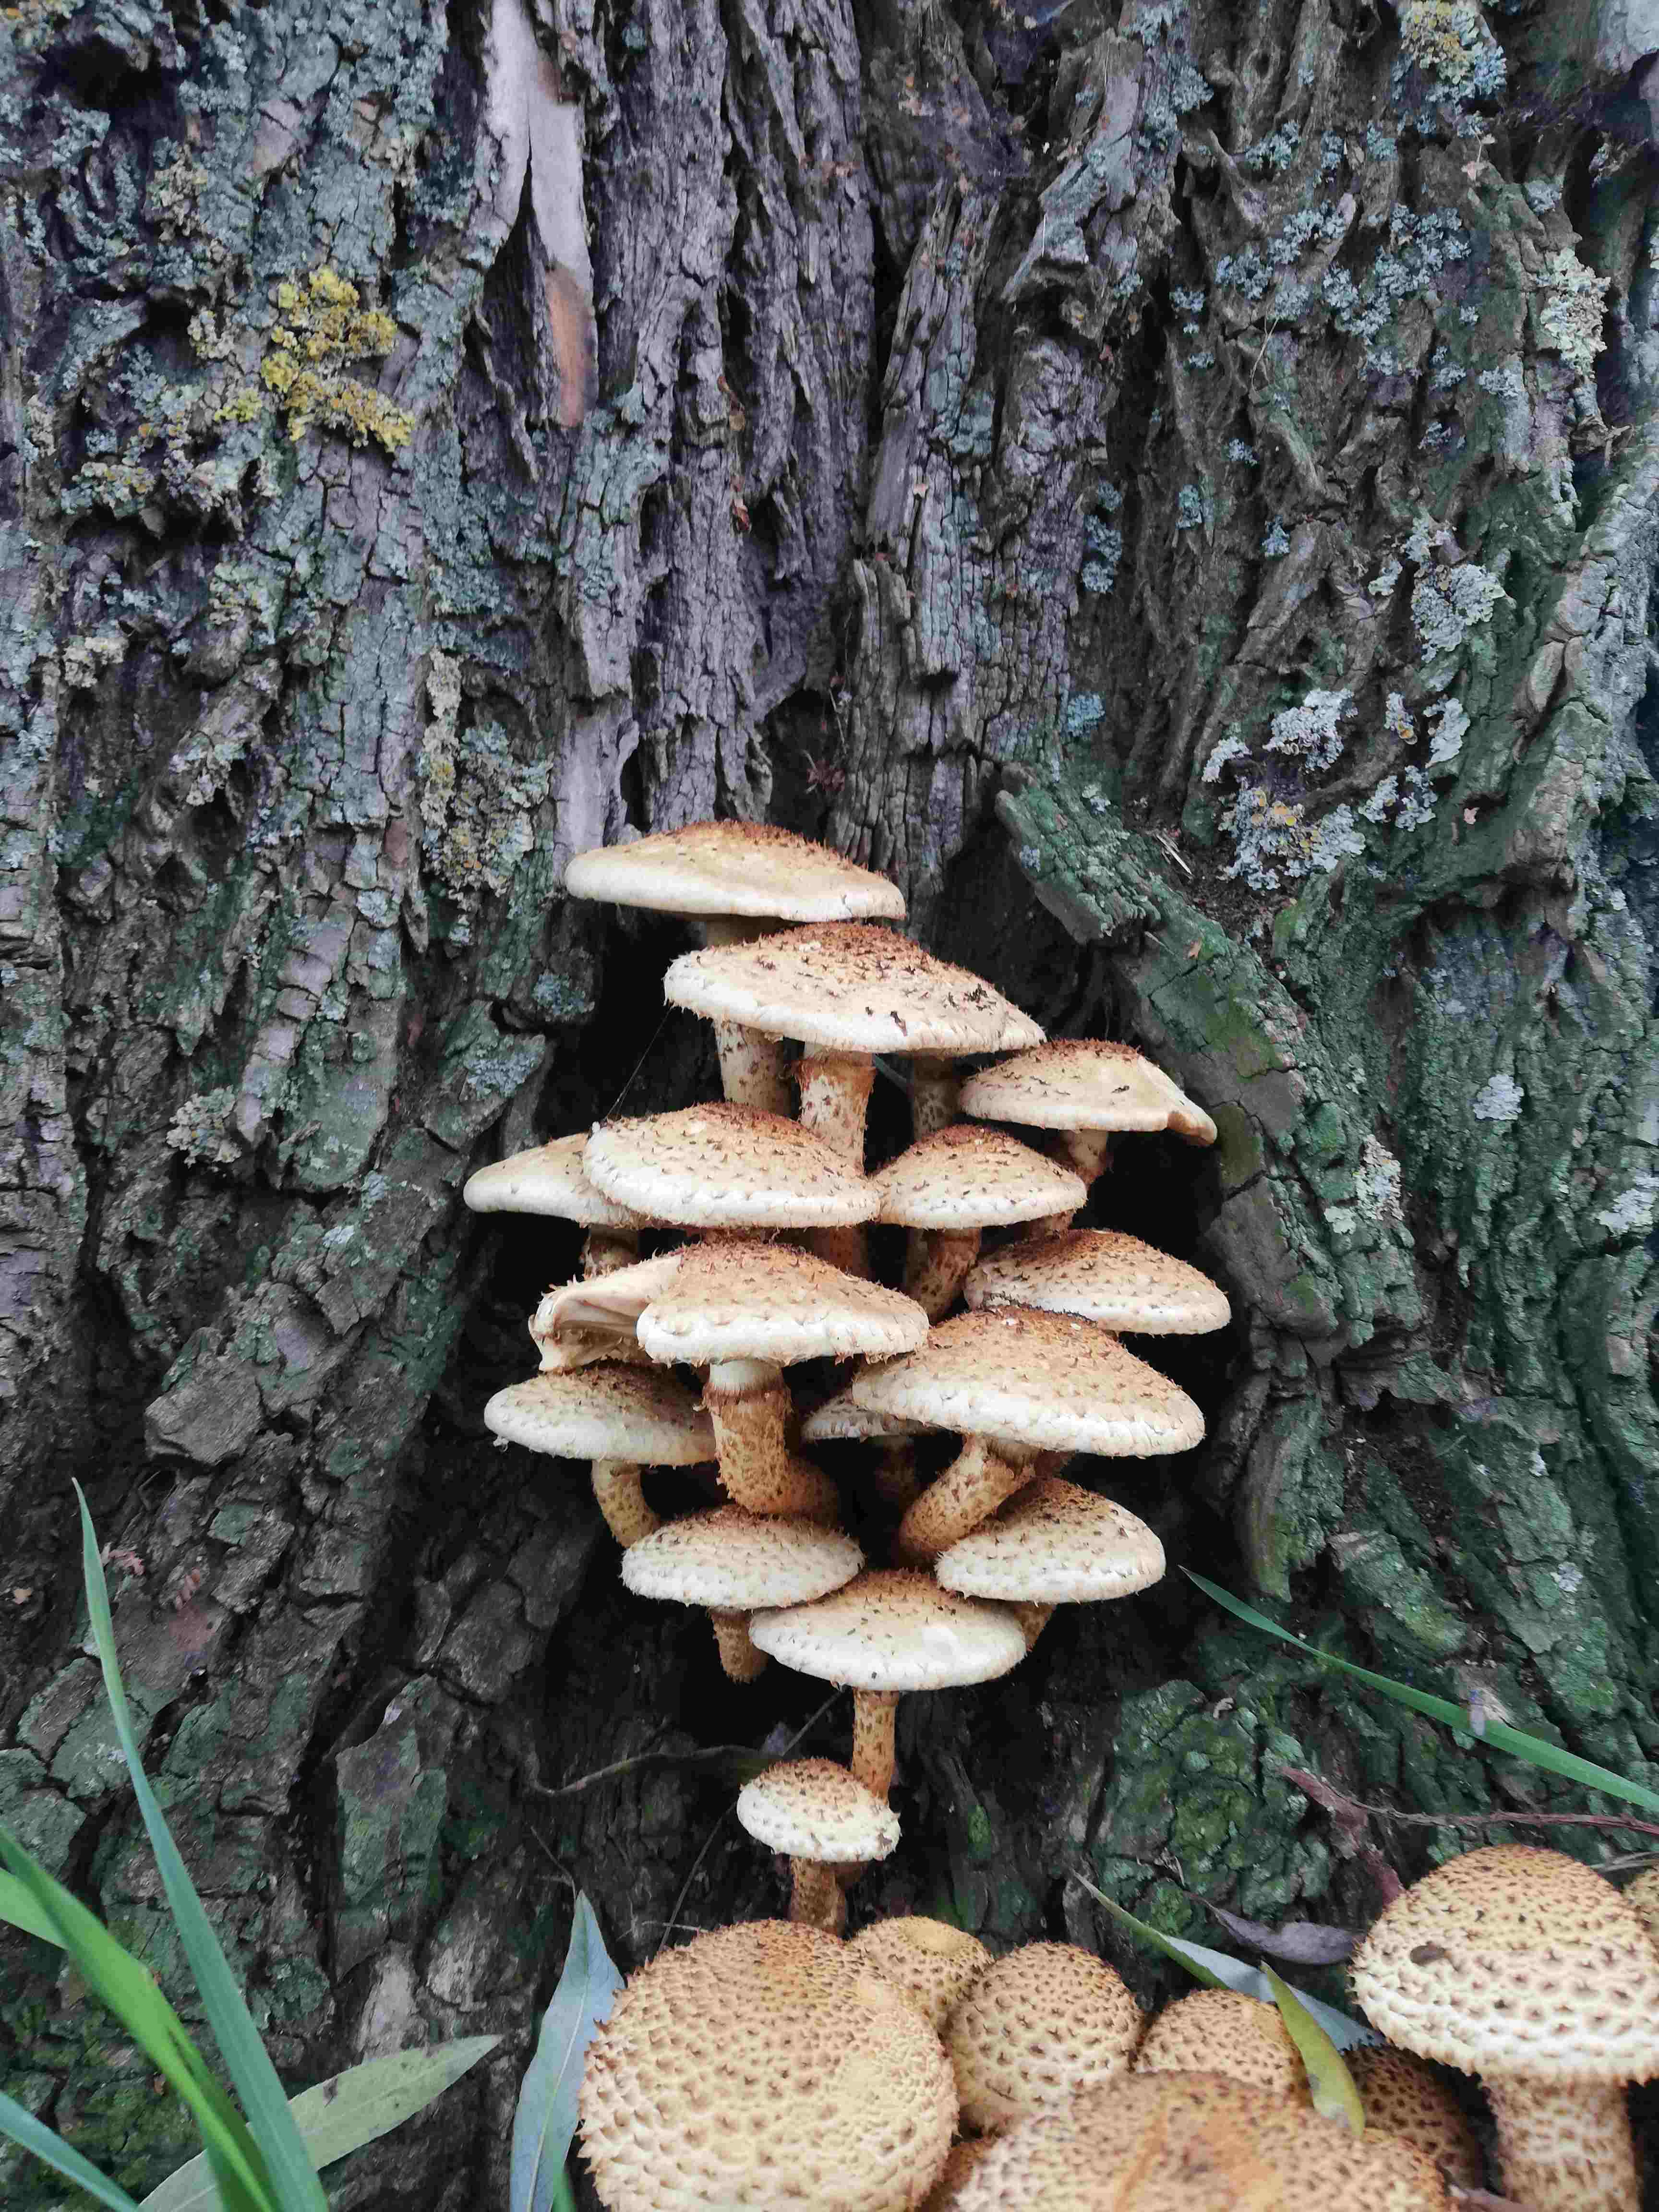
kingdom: Fungi
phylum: Basidiomycota
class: Agaricomycetes
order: Agaricales
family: Strophariaceae
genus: Pholiota
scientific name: Pholiota squarrosa
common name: krumskællet skælhat
